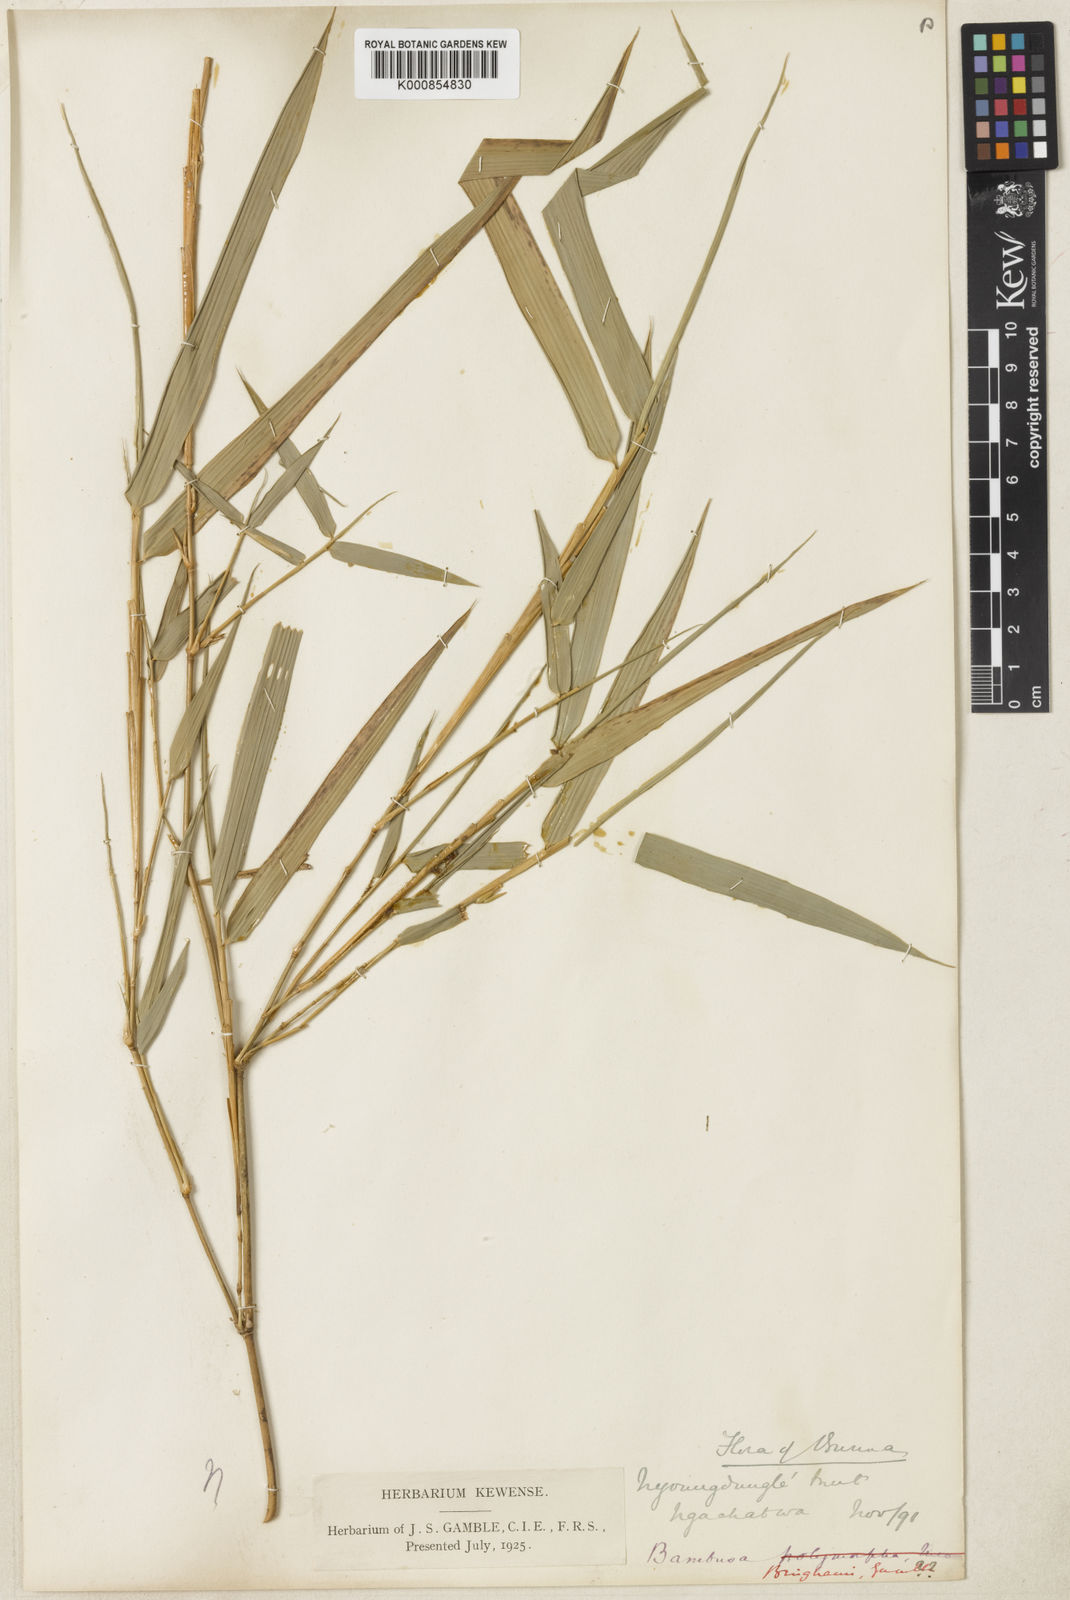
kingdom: Plantae
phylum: Tracheophyta
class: Liliopsida
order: Poales
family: Poaceae
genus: Bambusa
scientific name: Bambusa binghamii
